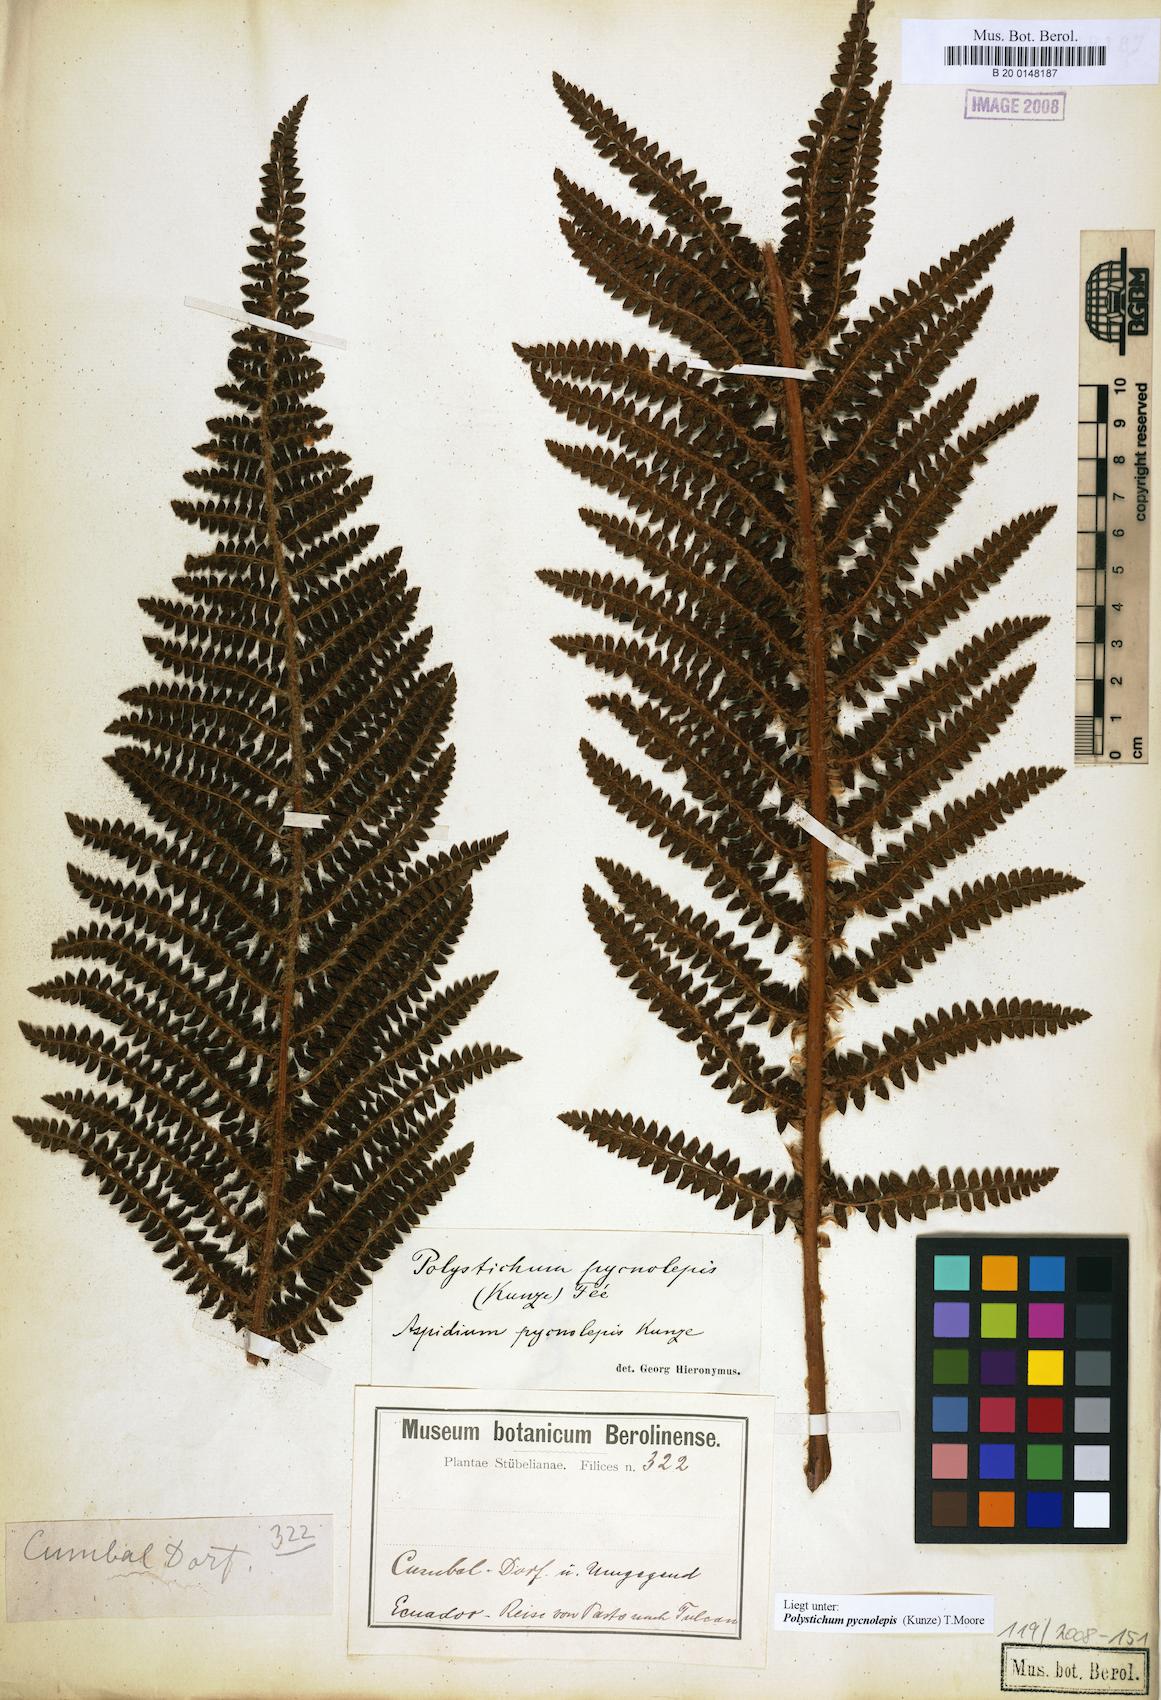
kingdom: Plantae
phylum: Tracheophyta
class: Polypodiopsida
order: Polypodiales
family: Dryopteridaceae
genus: Polystichum
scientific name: Polystichum pycnolepis
